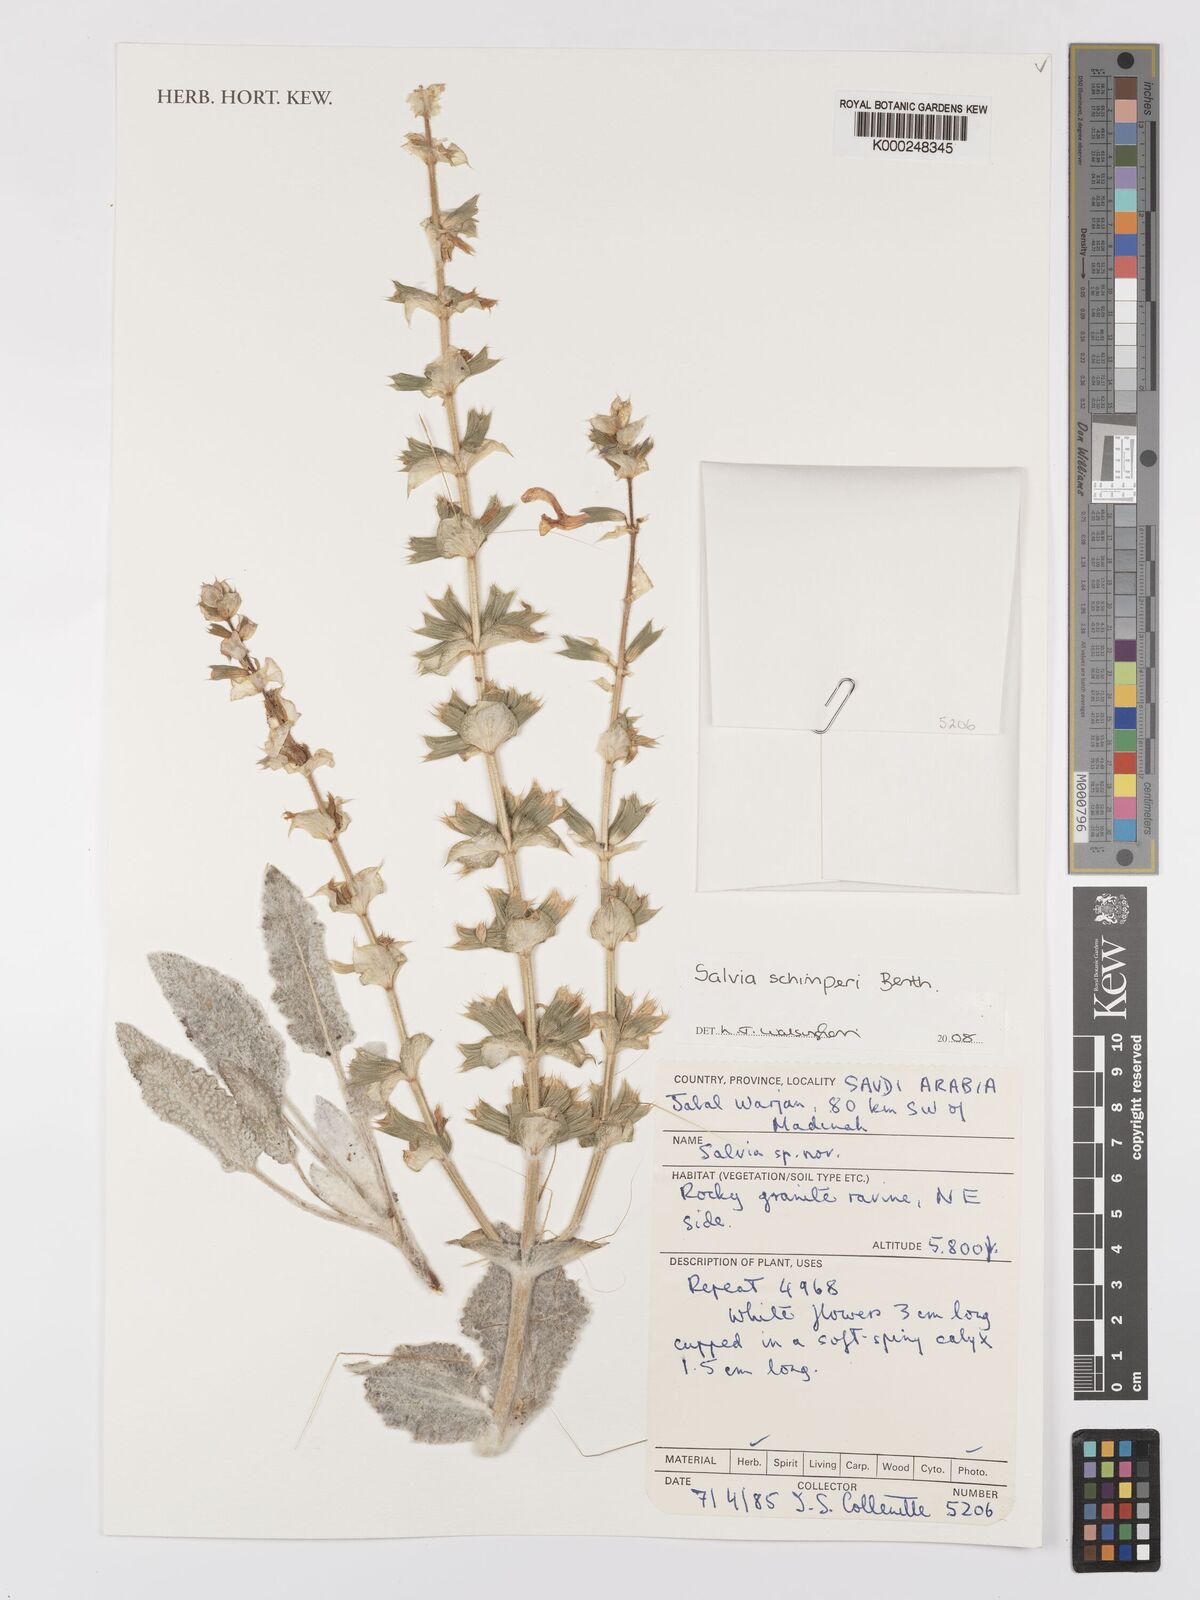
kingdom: Plantae
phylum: Tracheophyta
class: Magnoliopsida
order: Lamiales
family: Lamiaceae
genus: Salvia
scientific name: Salvia schimperi
